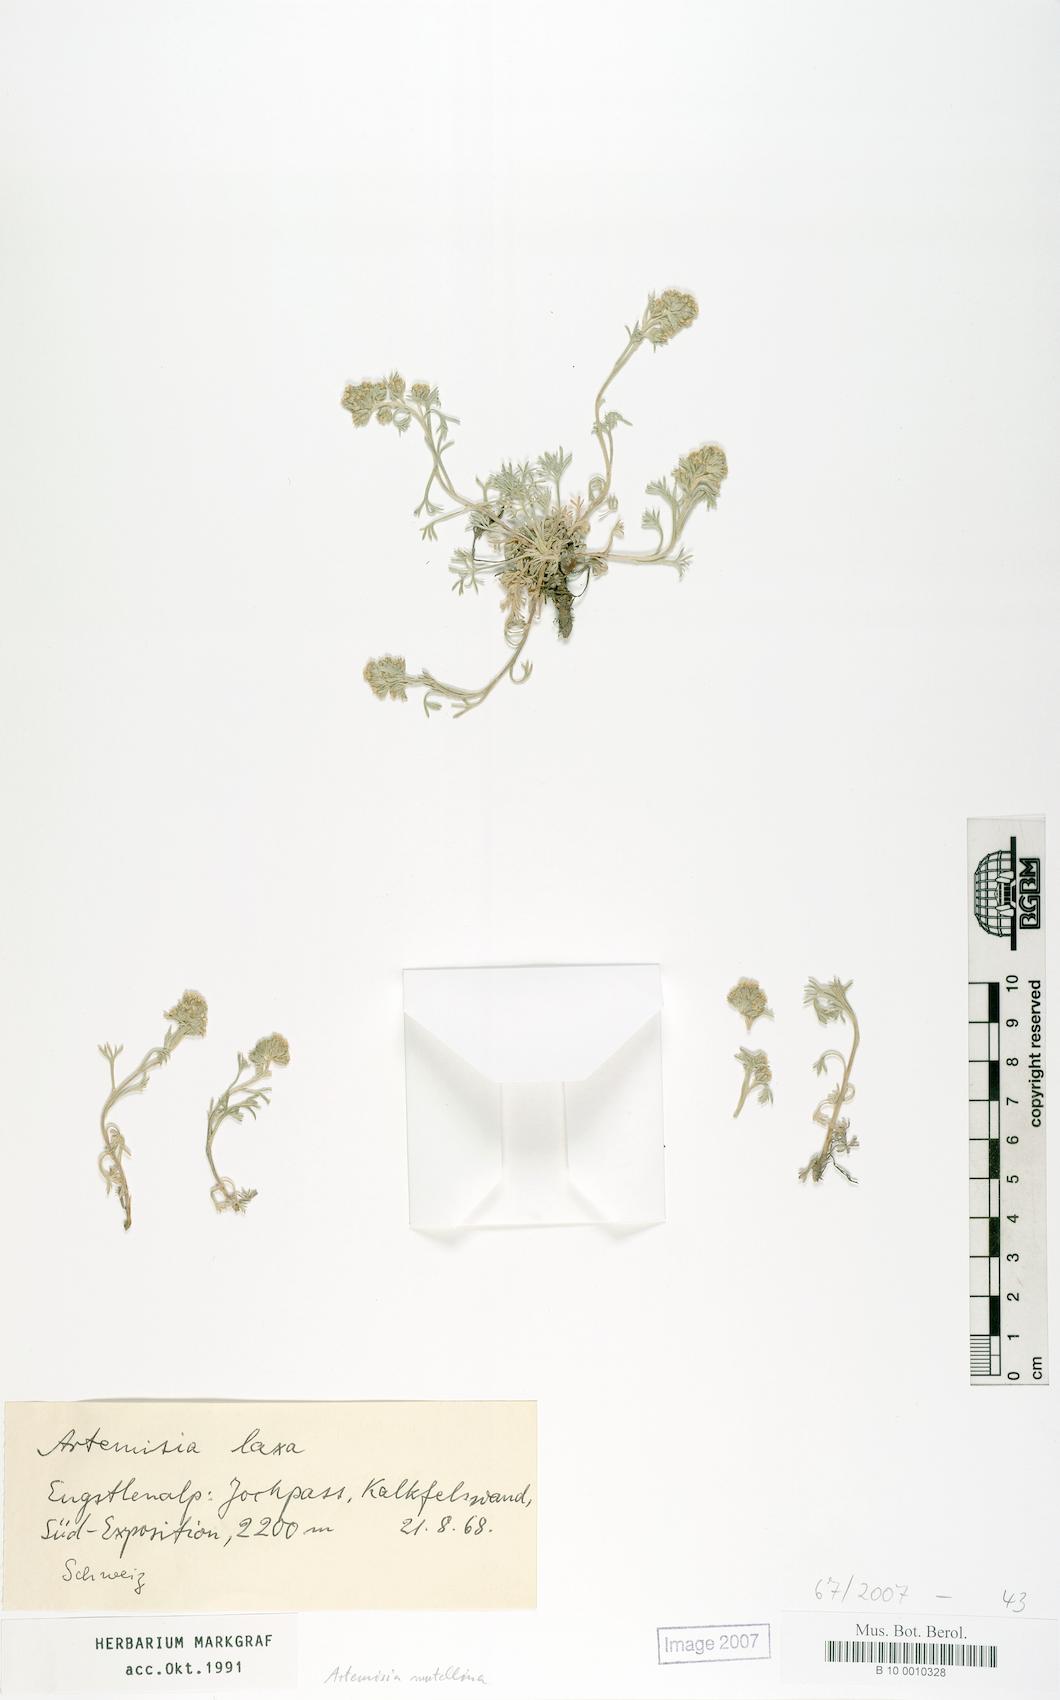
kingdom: Plantae
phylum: Tracheophyta
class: Magnoliopsida
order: Asterales
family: Asteraceae
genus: Artemisia
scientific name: Artemisia mutellina
